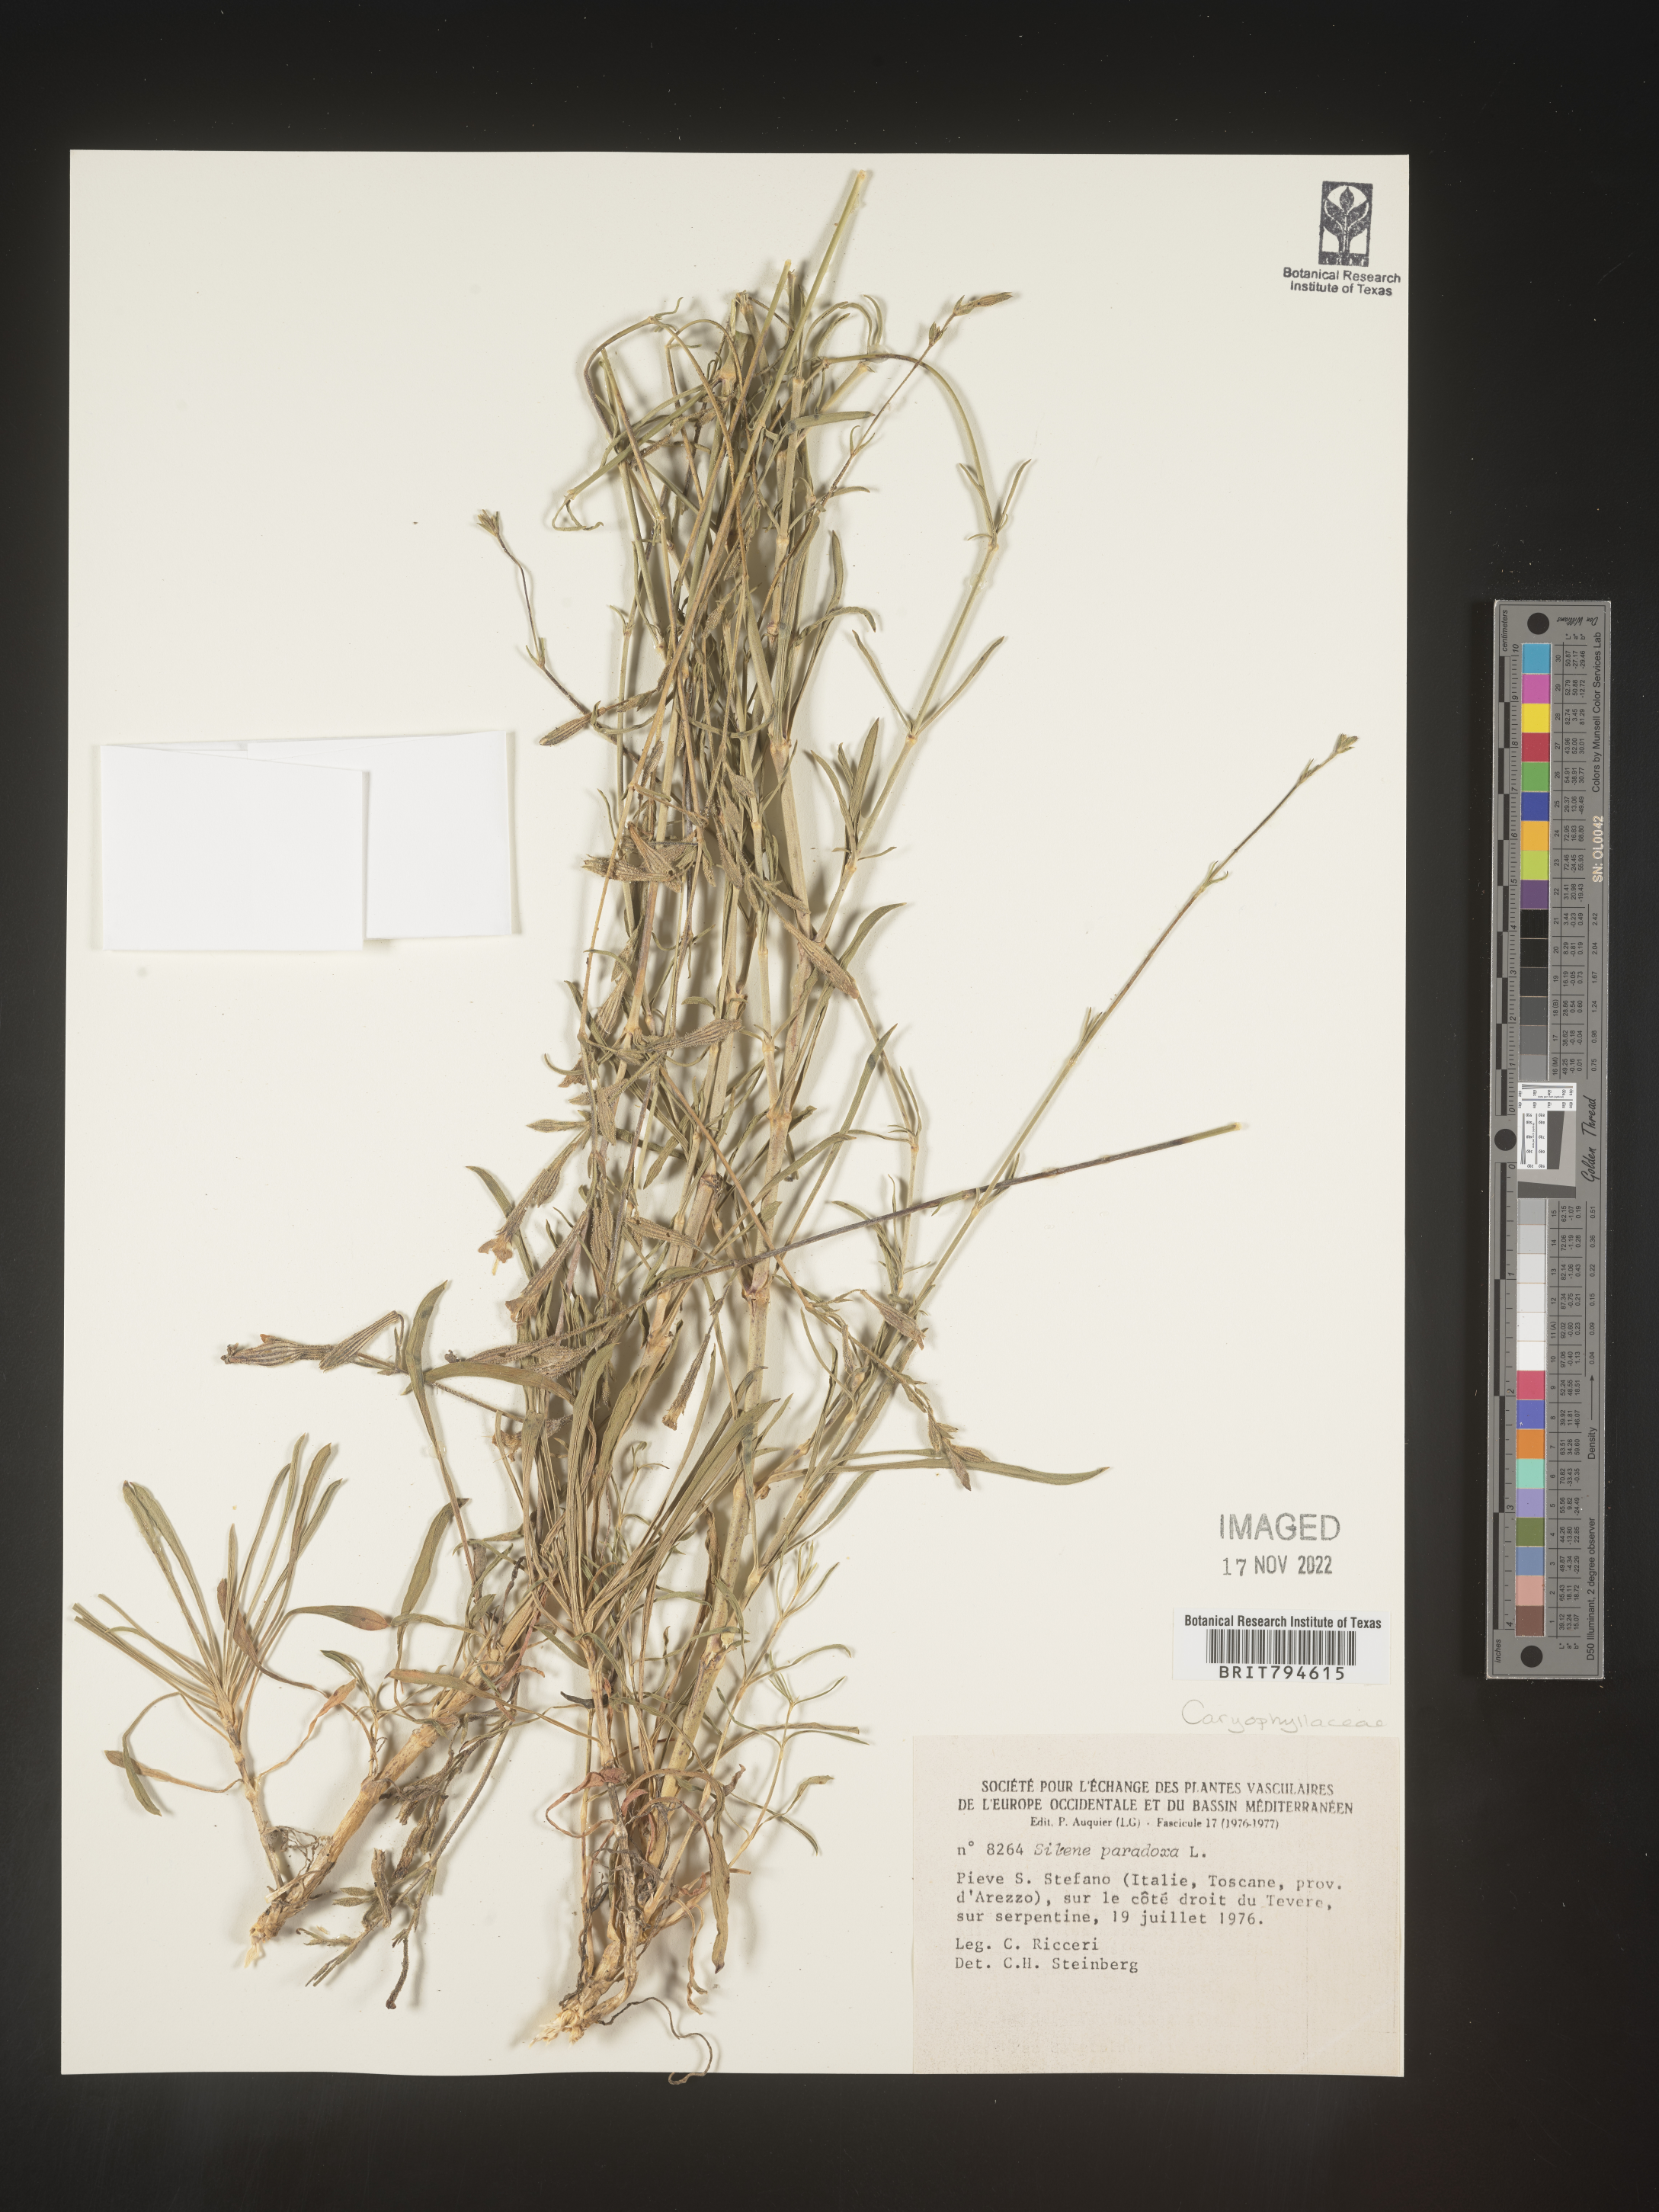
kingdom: Plantae
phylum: Tracheophyta
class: Magnoliopsida
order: Caryophyllales
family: Caryophyllaceae
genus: Silene
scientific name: Silene paradoxa
